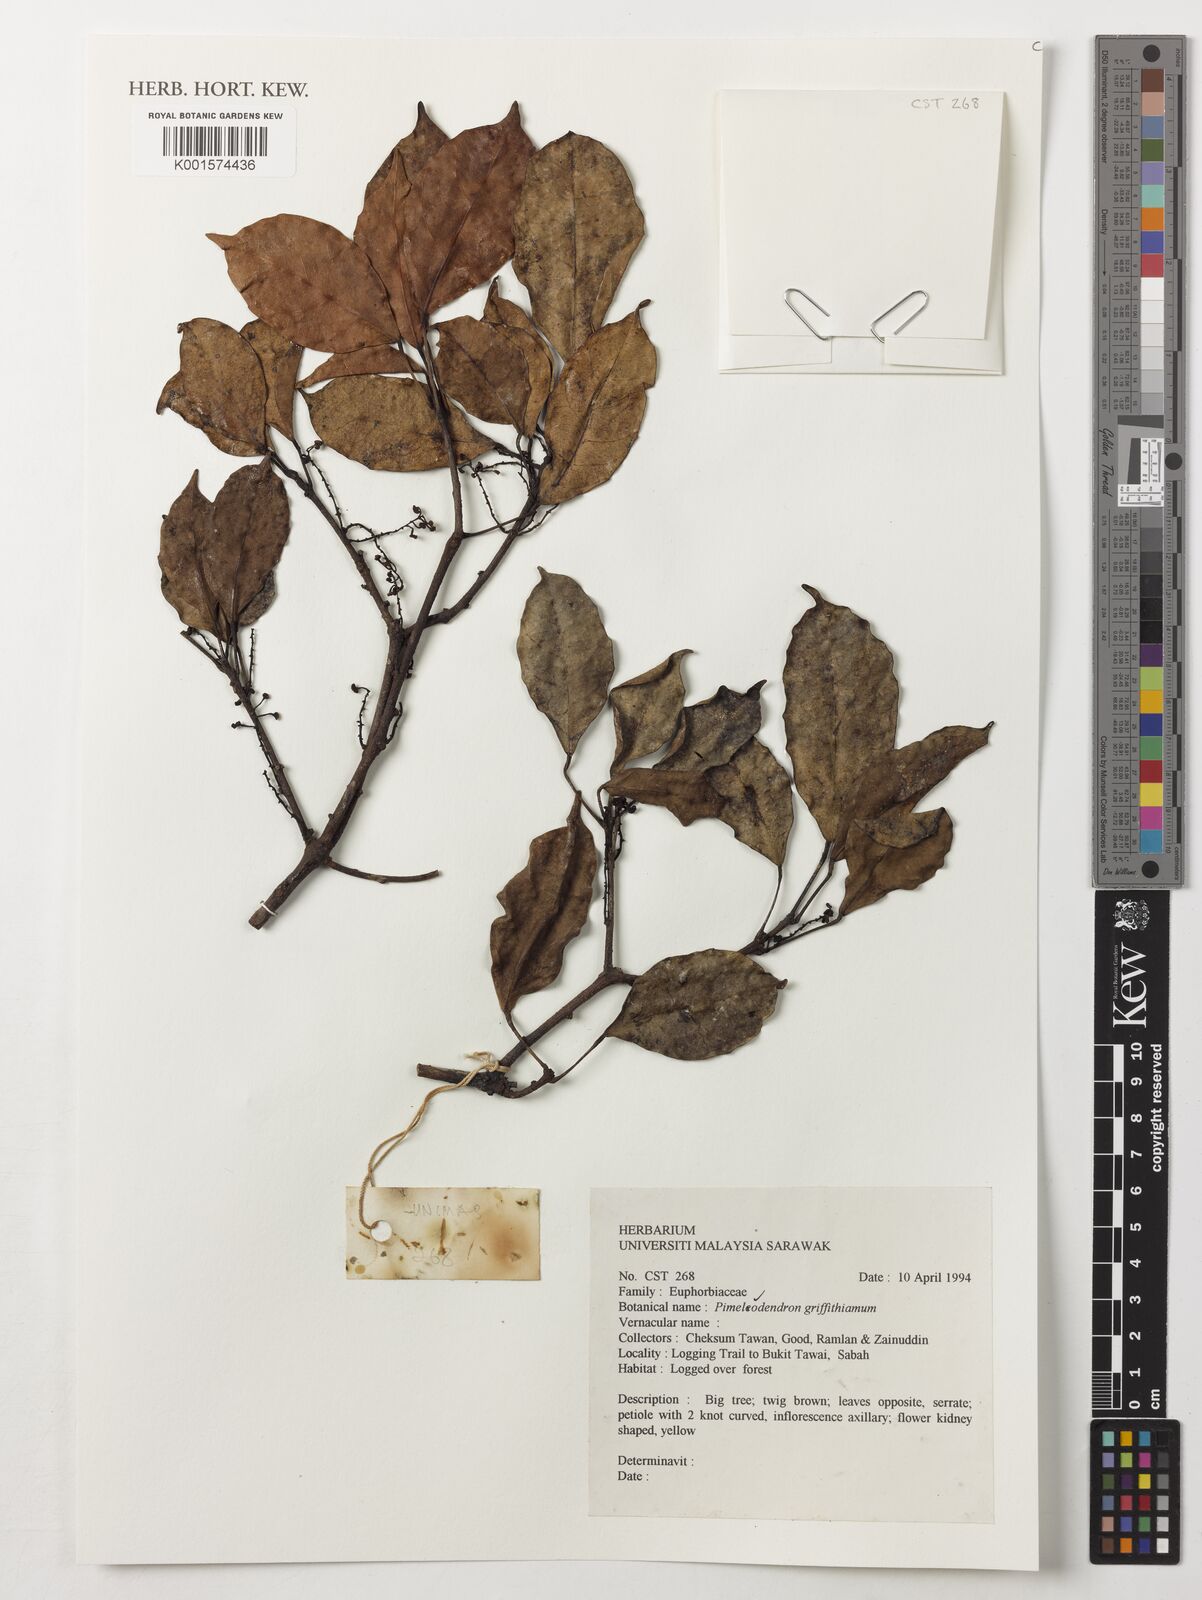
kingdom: Plantae
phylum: Tracheophyta
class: Magnoliopsida
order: Malpighiales
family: Euphorbiaceae
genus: Pimelodendron
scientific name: Pimelodendron griffithianum
